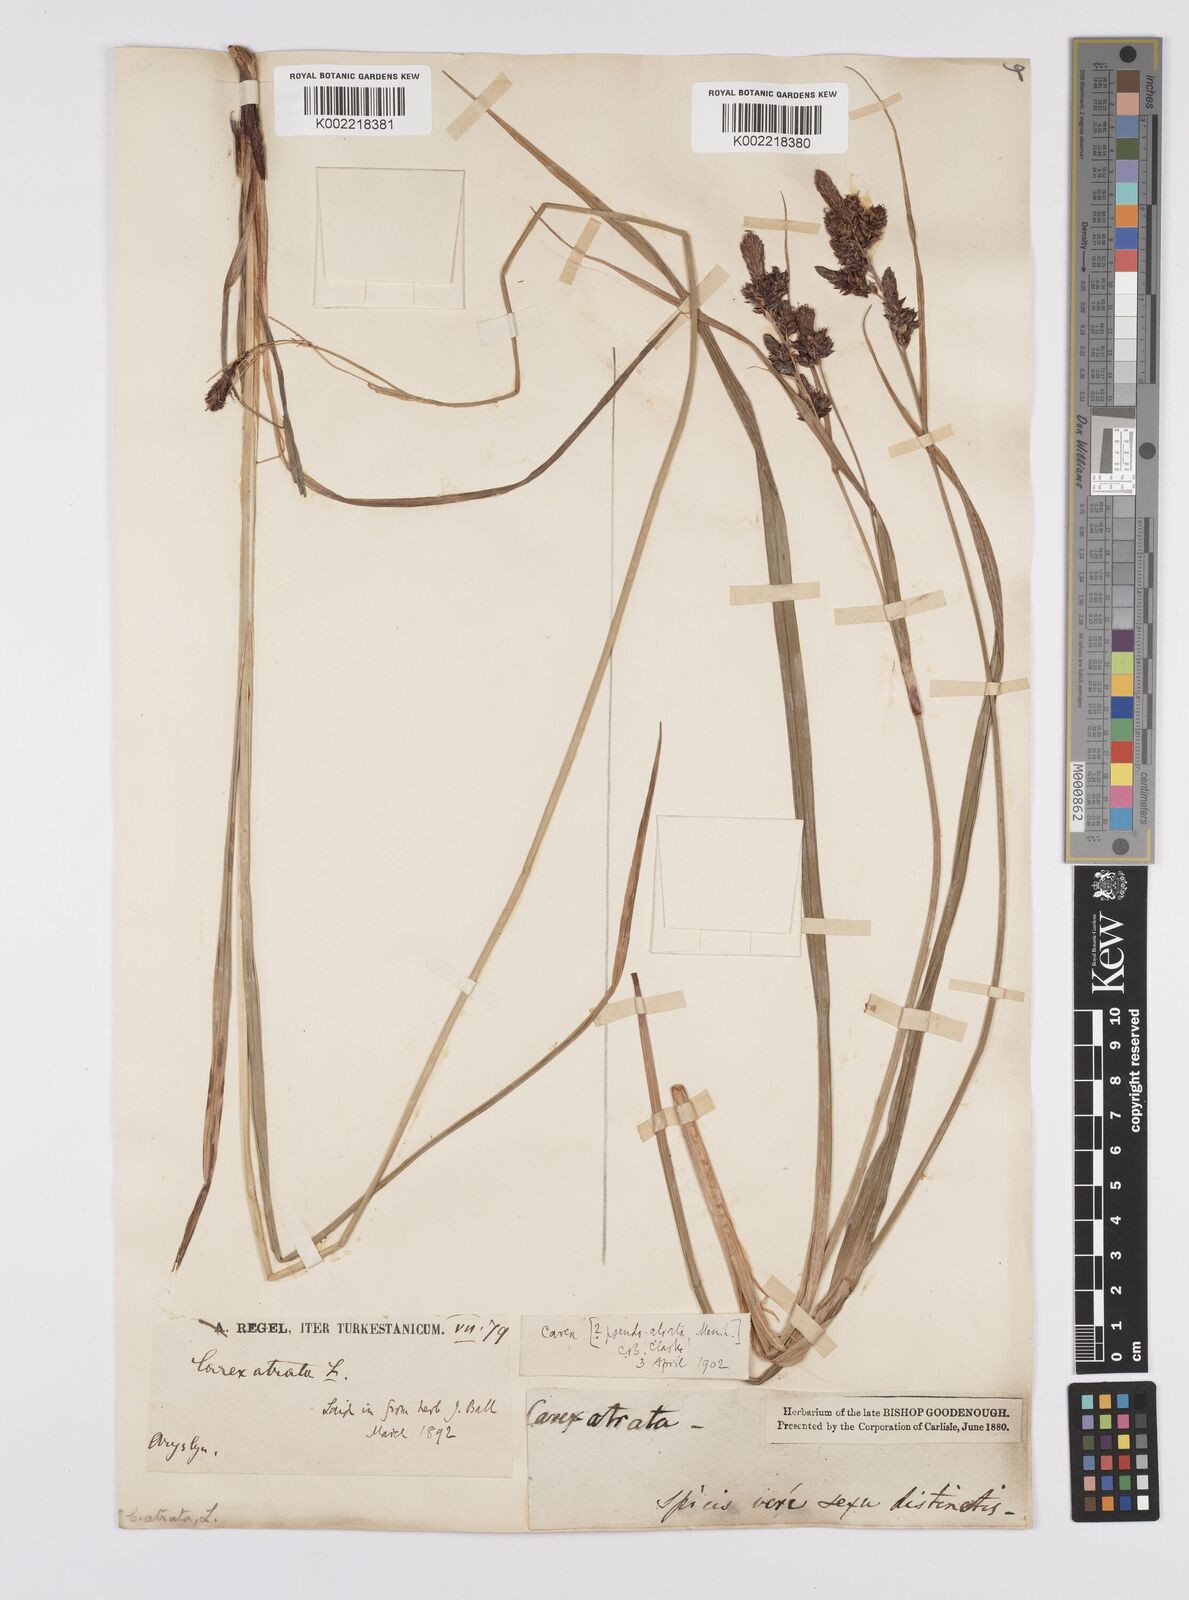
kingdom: Plantae
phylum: Tracheophyta
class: Liliopsida
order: Poales
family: Cyperaceae
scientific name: Cyperaceae
